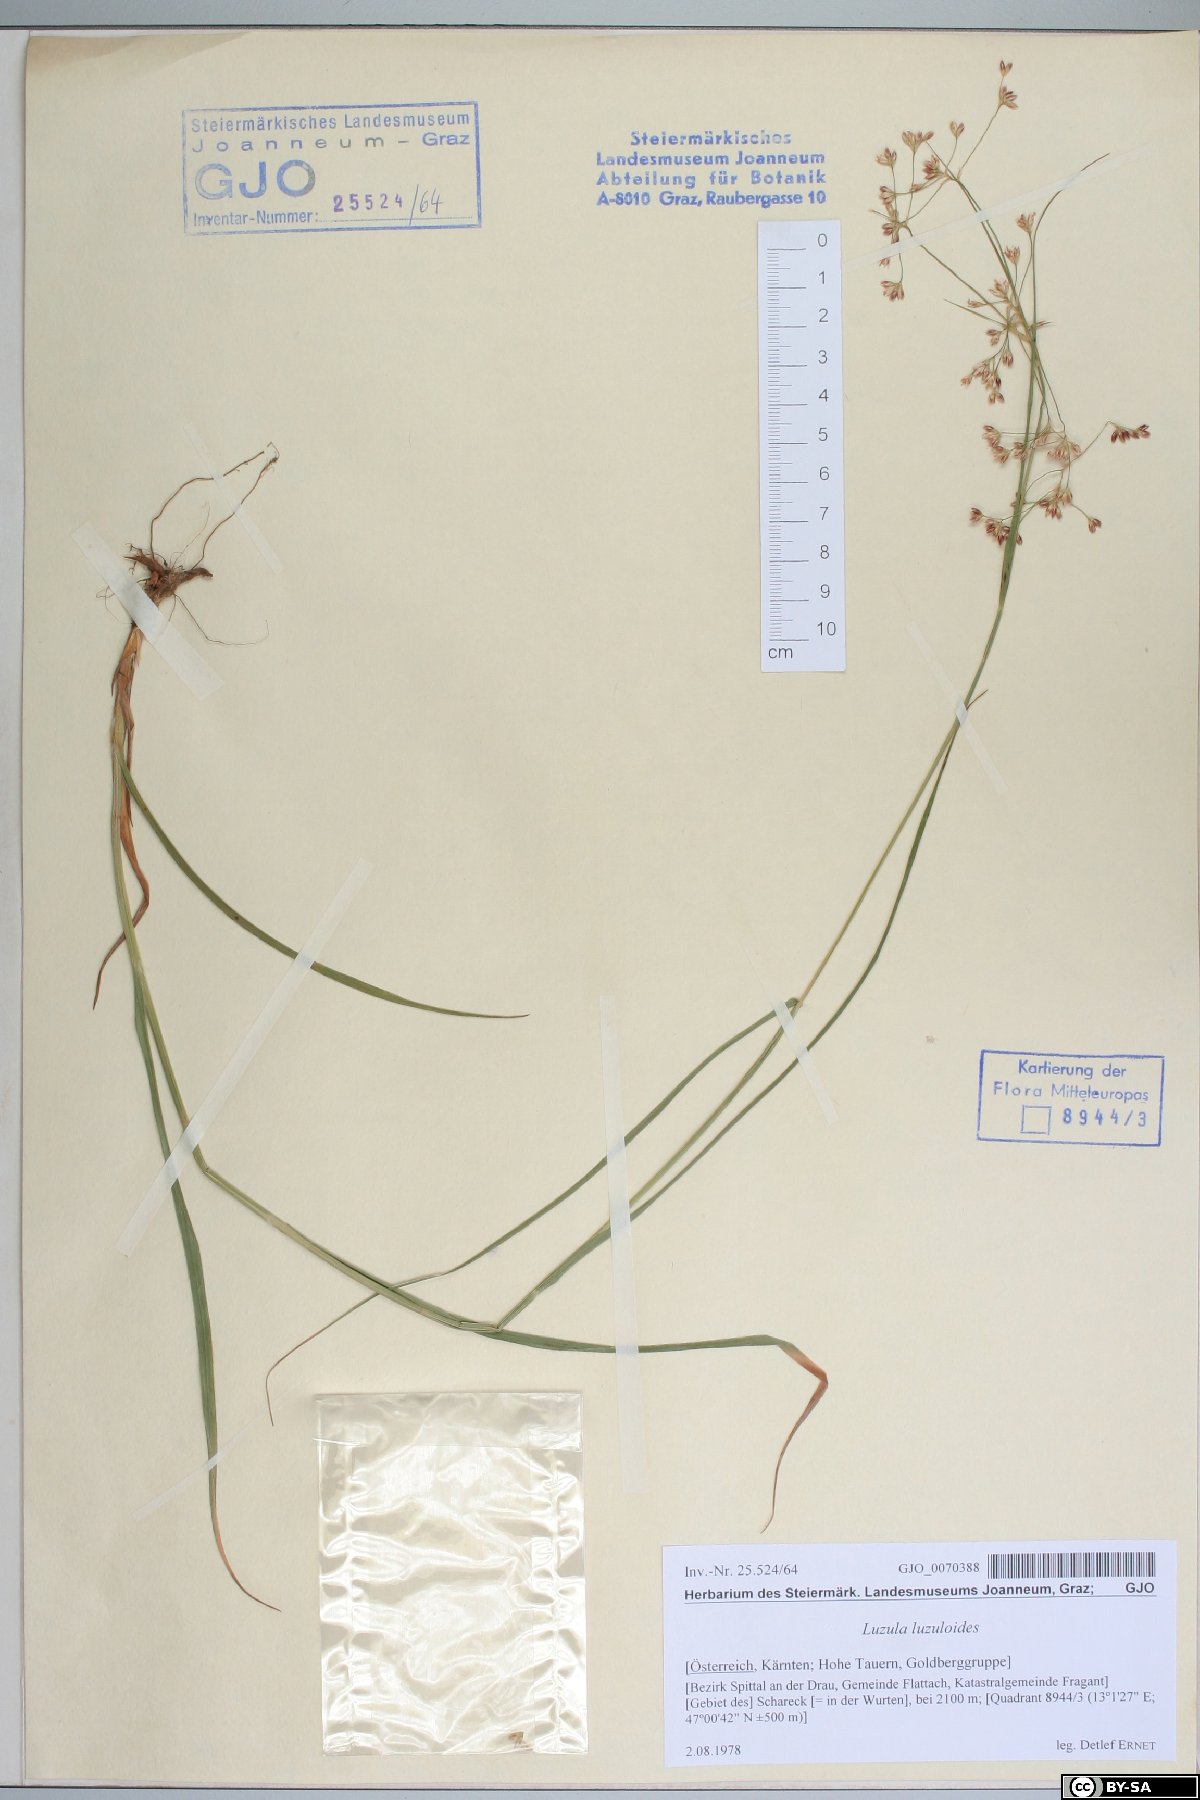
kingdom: Plantae
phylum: Tracheophyta
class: Liliopsida
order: Poales
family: Juncaceae
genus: Luzula
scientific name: Luzula luzuloides
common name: White wood-rush
